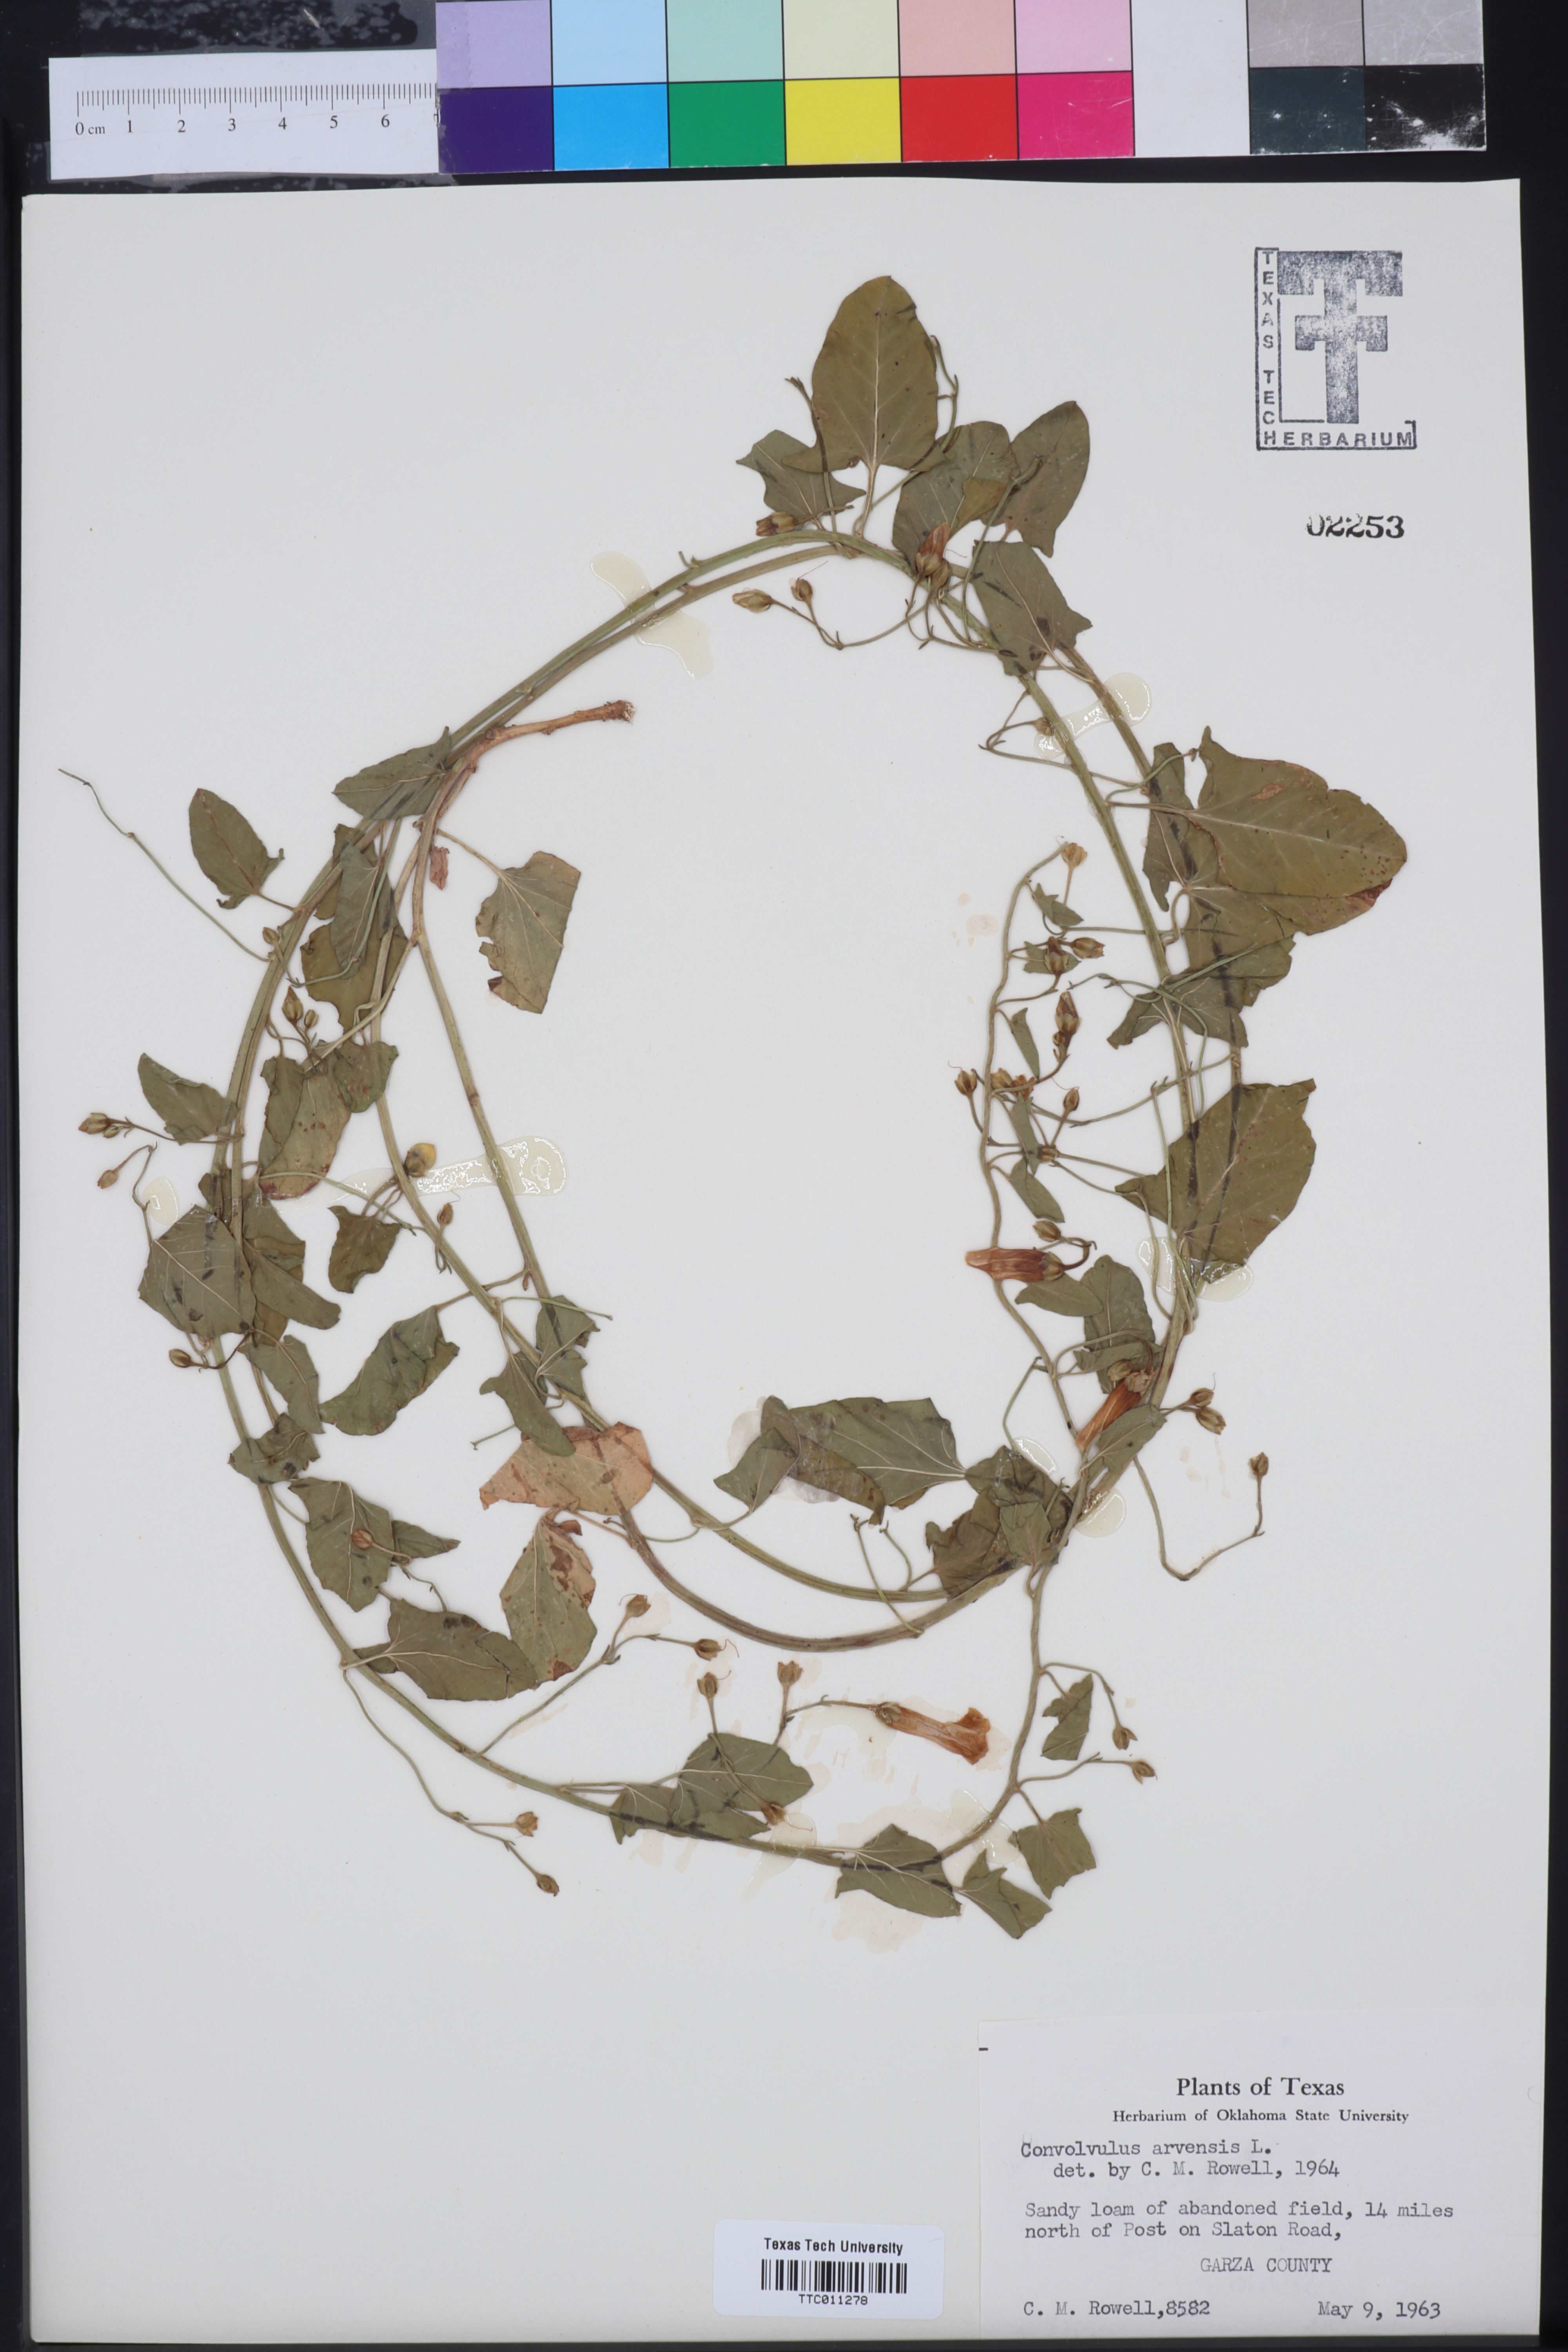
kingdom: Plantae
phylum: Tracheophyta
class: Magnoliopsida
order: Solanales
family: Convolvulaceae
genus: Convolvulus
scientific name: Convolvulus arvensis
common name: Field bindweed
